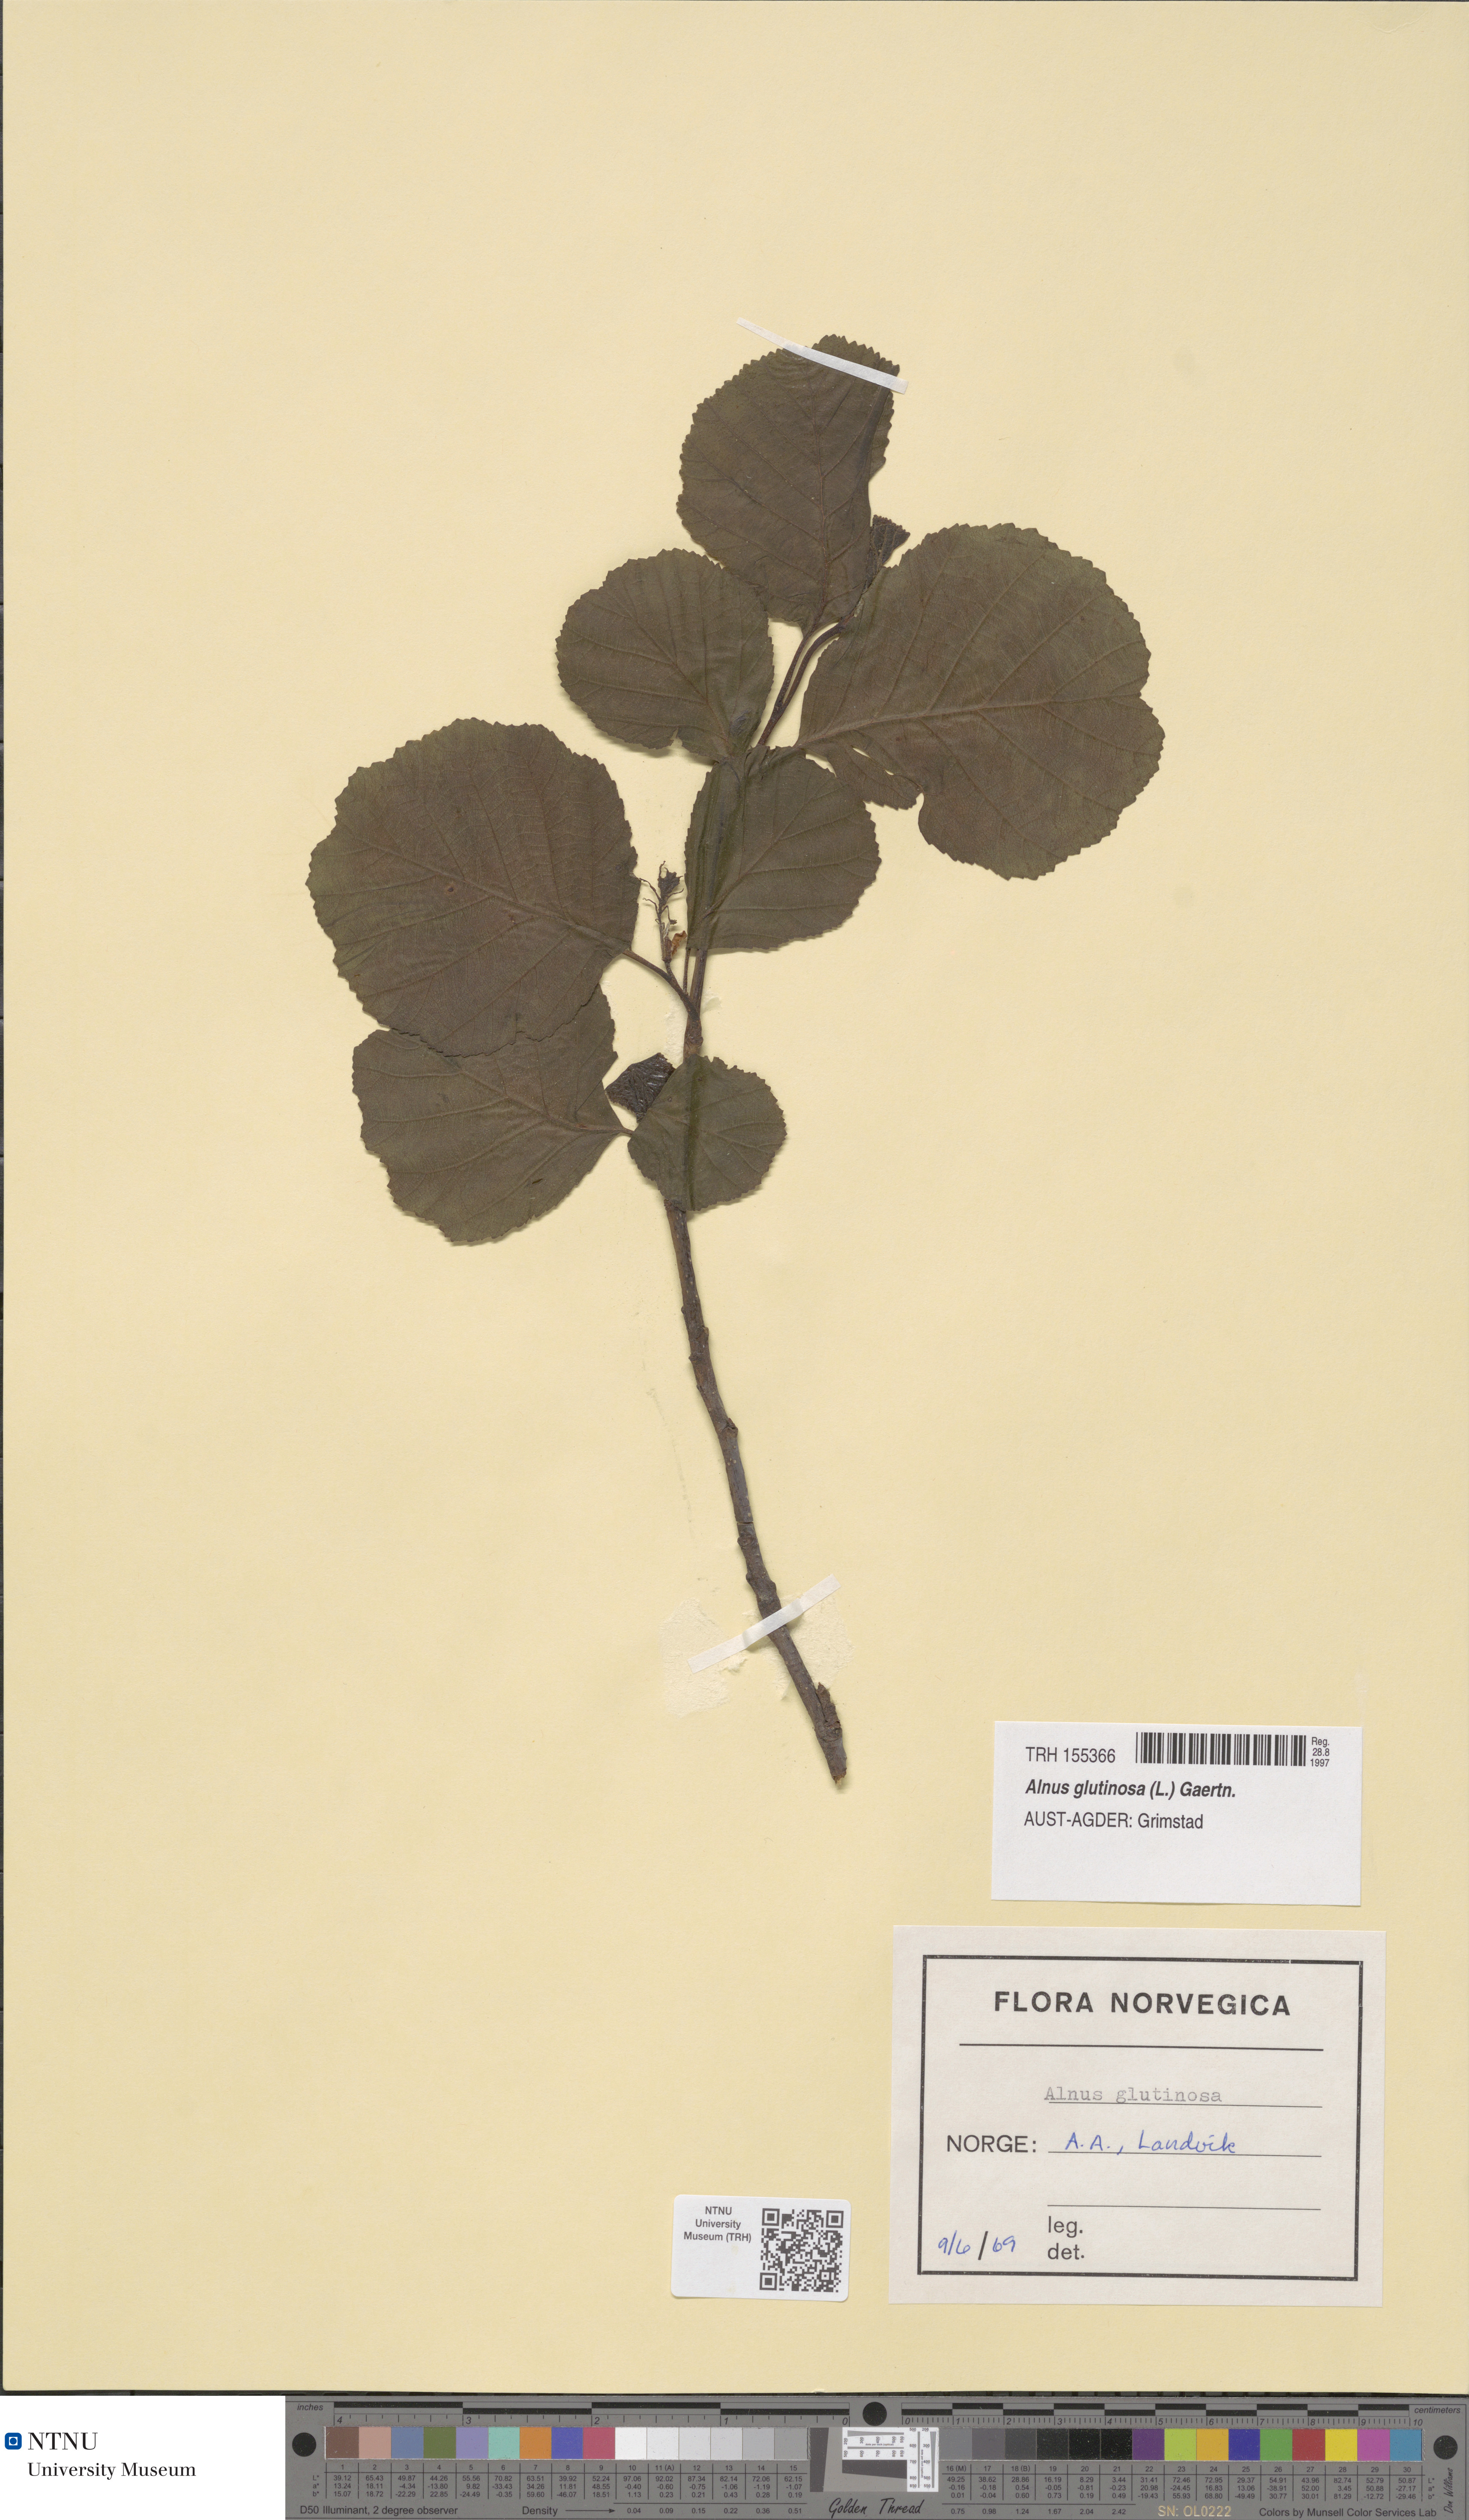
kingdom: Plantae
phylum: Tracheophyta
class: Magnoliopsida
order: Fagales
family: Betulaceae
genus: Alnus
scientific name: Alnus glutinosa
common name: Black alder
